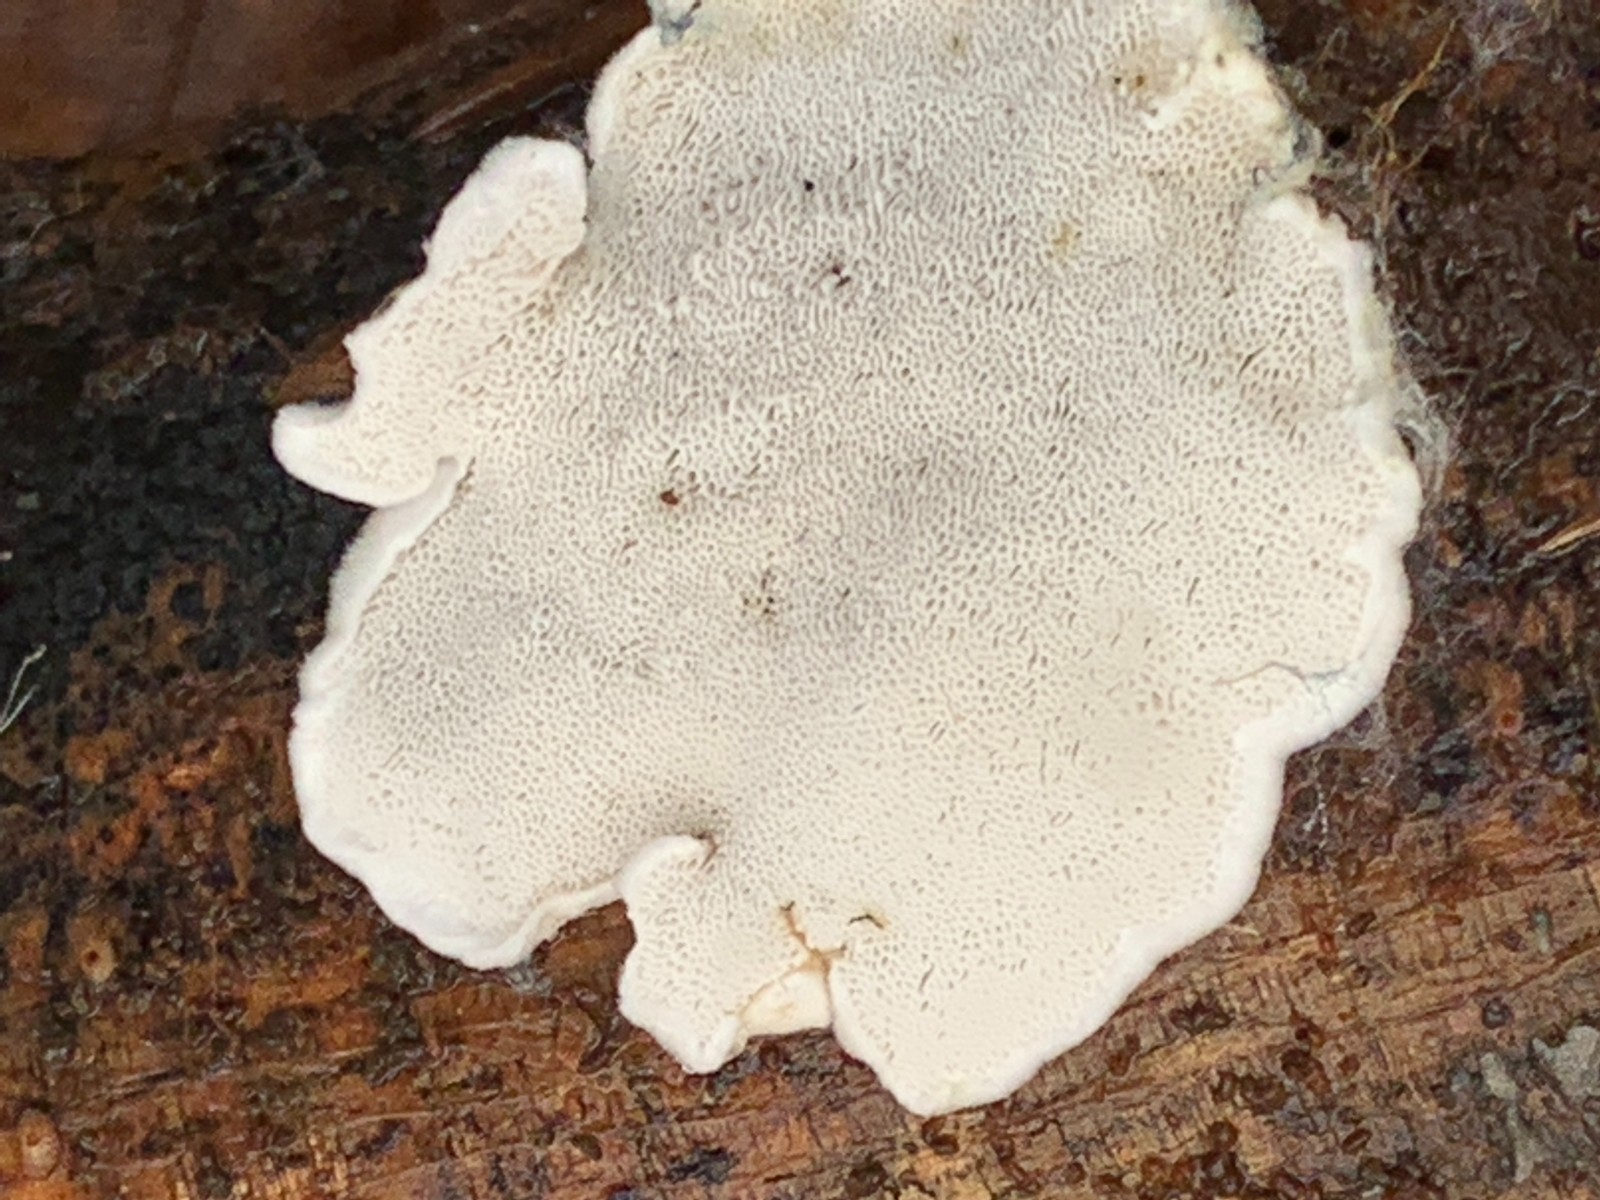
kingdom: Fungi
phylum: Basidiomycota
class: Agaricomycetes
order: Polyporales
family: Incrustoporiaceae
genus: Tyromyces
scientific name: Tyromyces lacteus
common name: mælkehvid kødporesvamp
